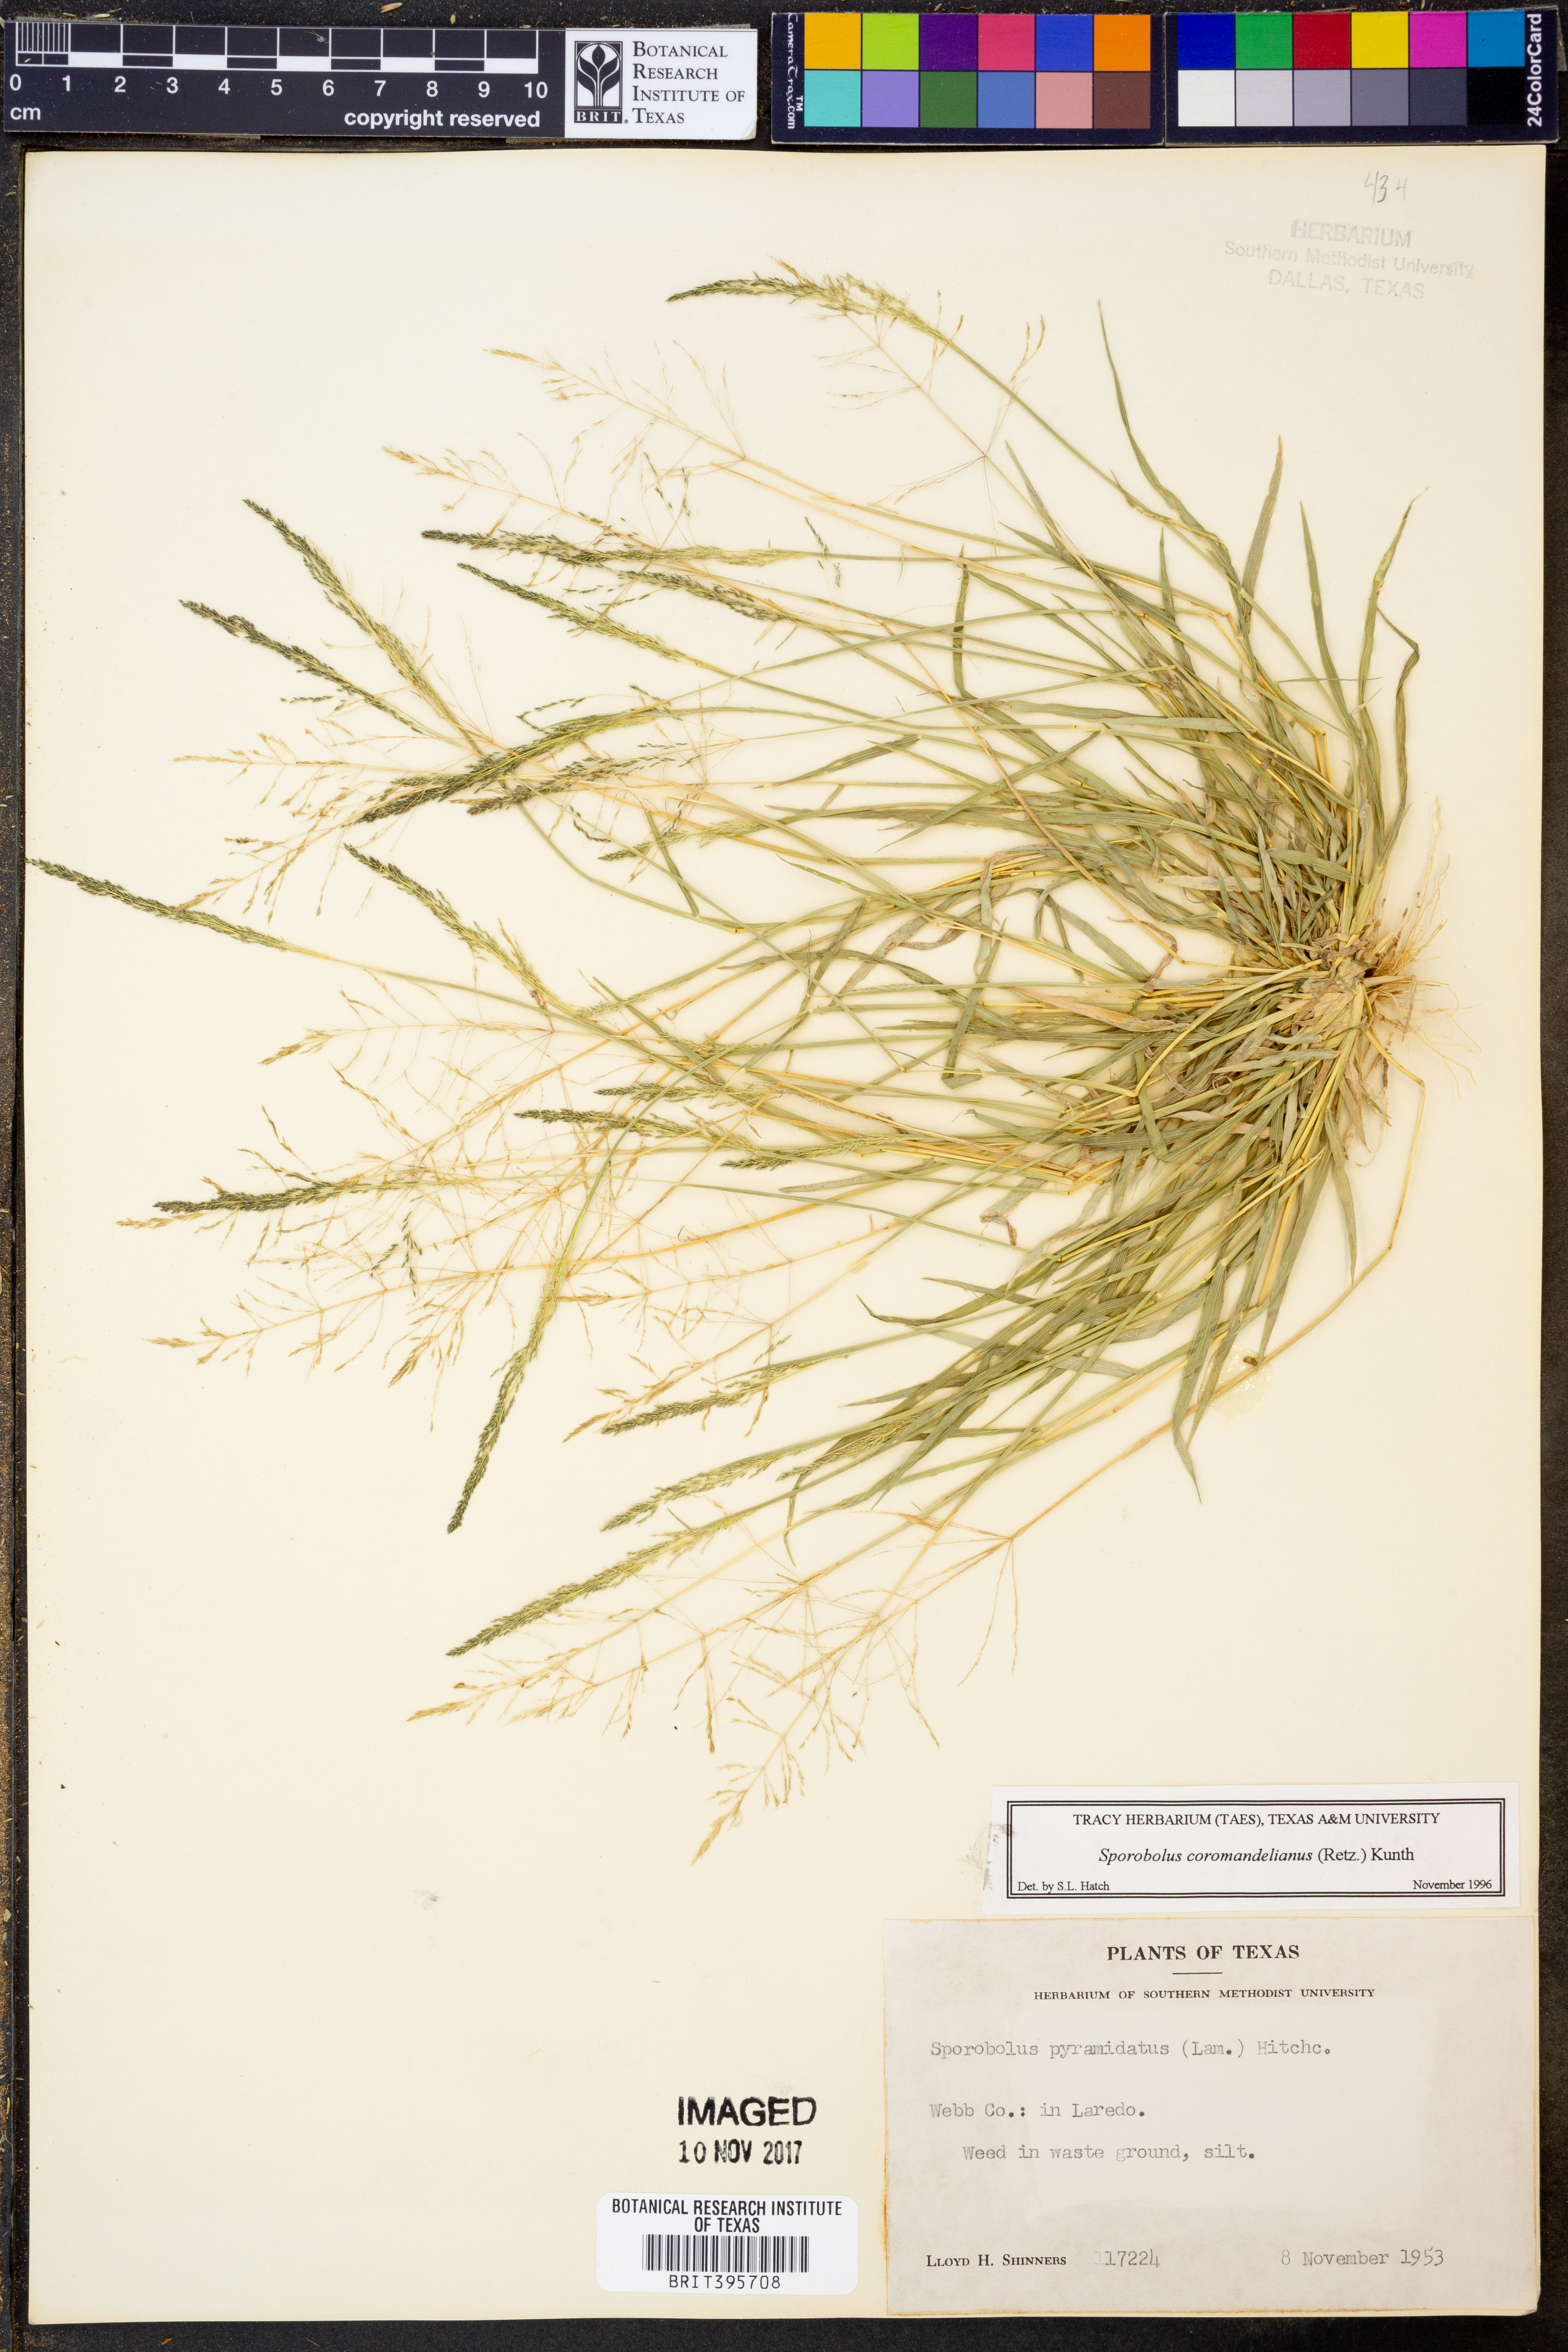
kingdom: Plantae
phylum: Tracheophyta
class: Liliopsida
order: Poales
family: Poaceae
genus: Sporobolus
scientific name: Sporobolus coromandelianus
